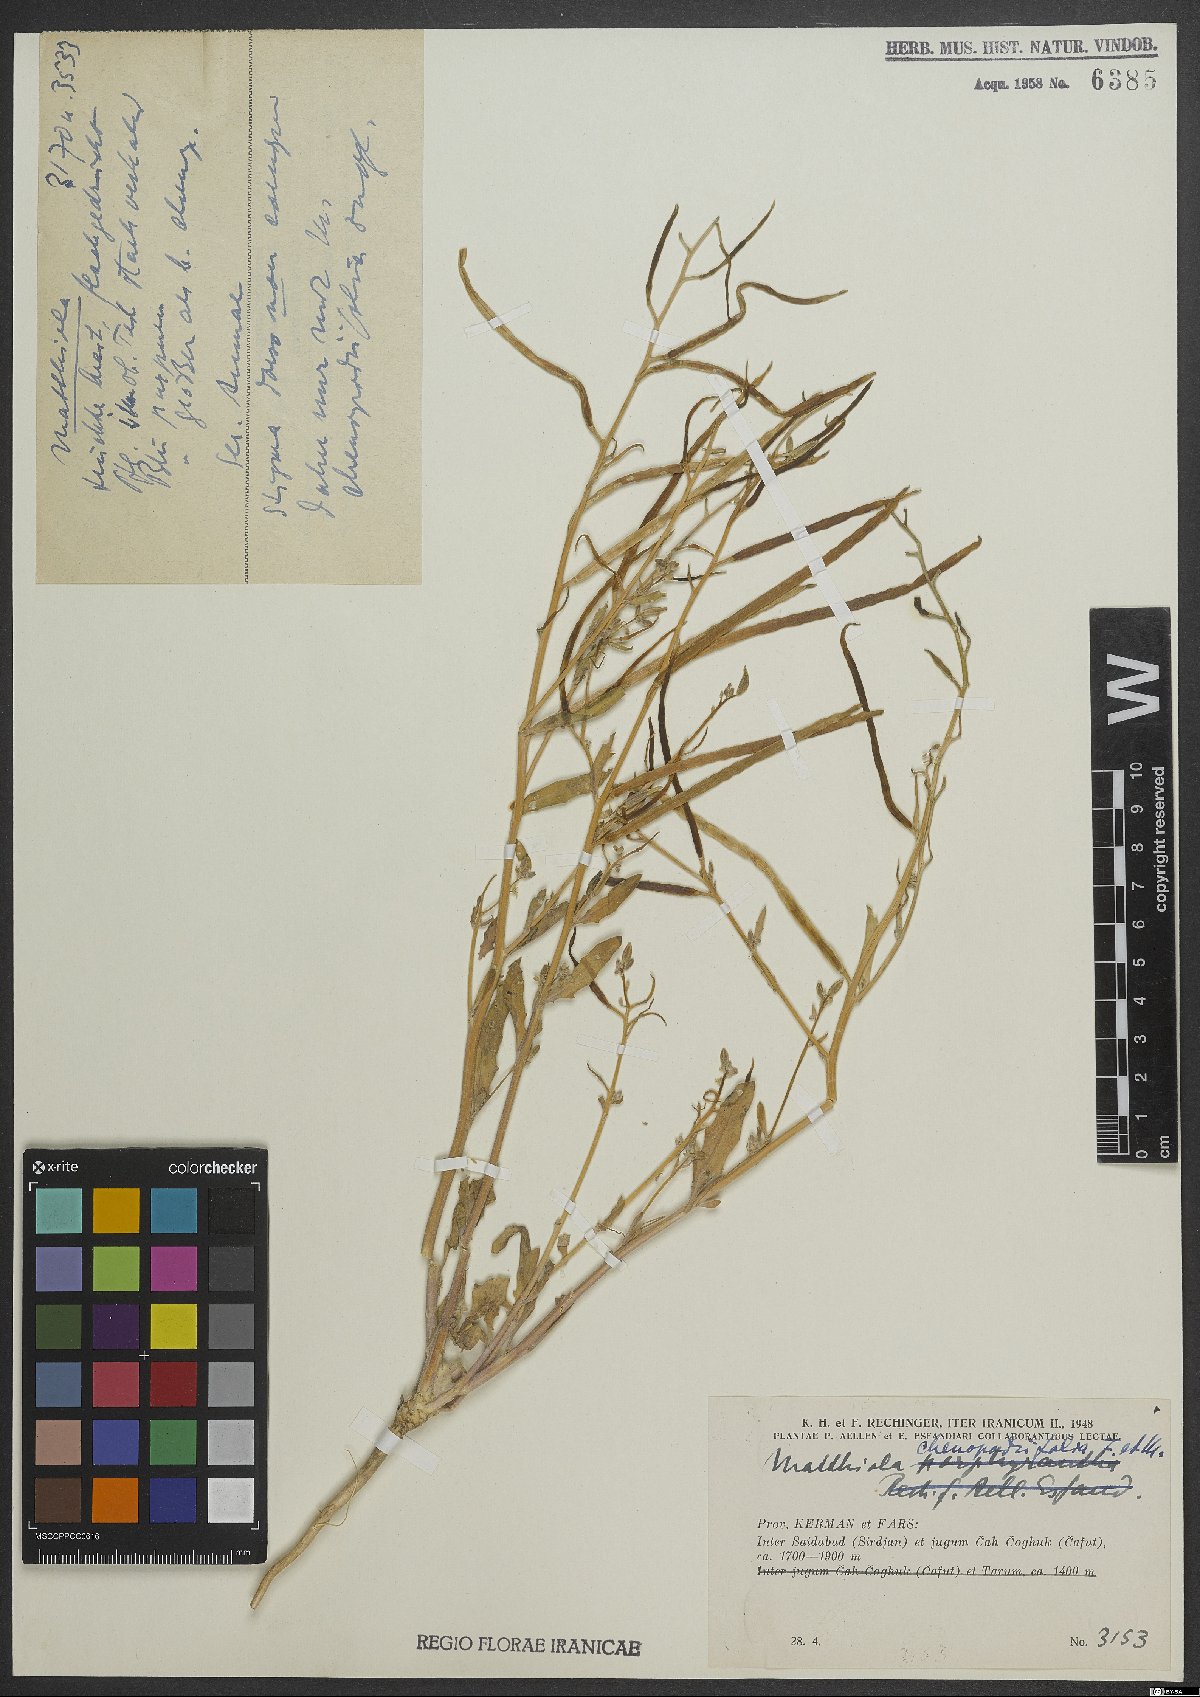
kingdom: Plantae
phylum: Tracheophyta
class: Magnoliopsida
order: Brassicales
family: Brassicaceae
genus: Matthiola
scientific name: Matthiola chenopodiifolia
